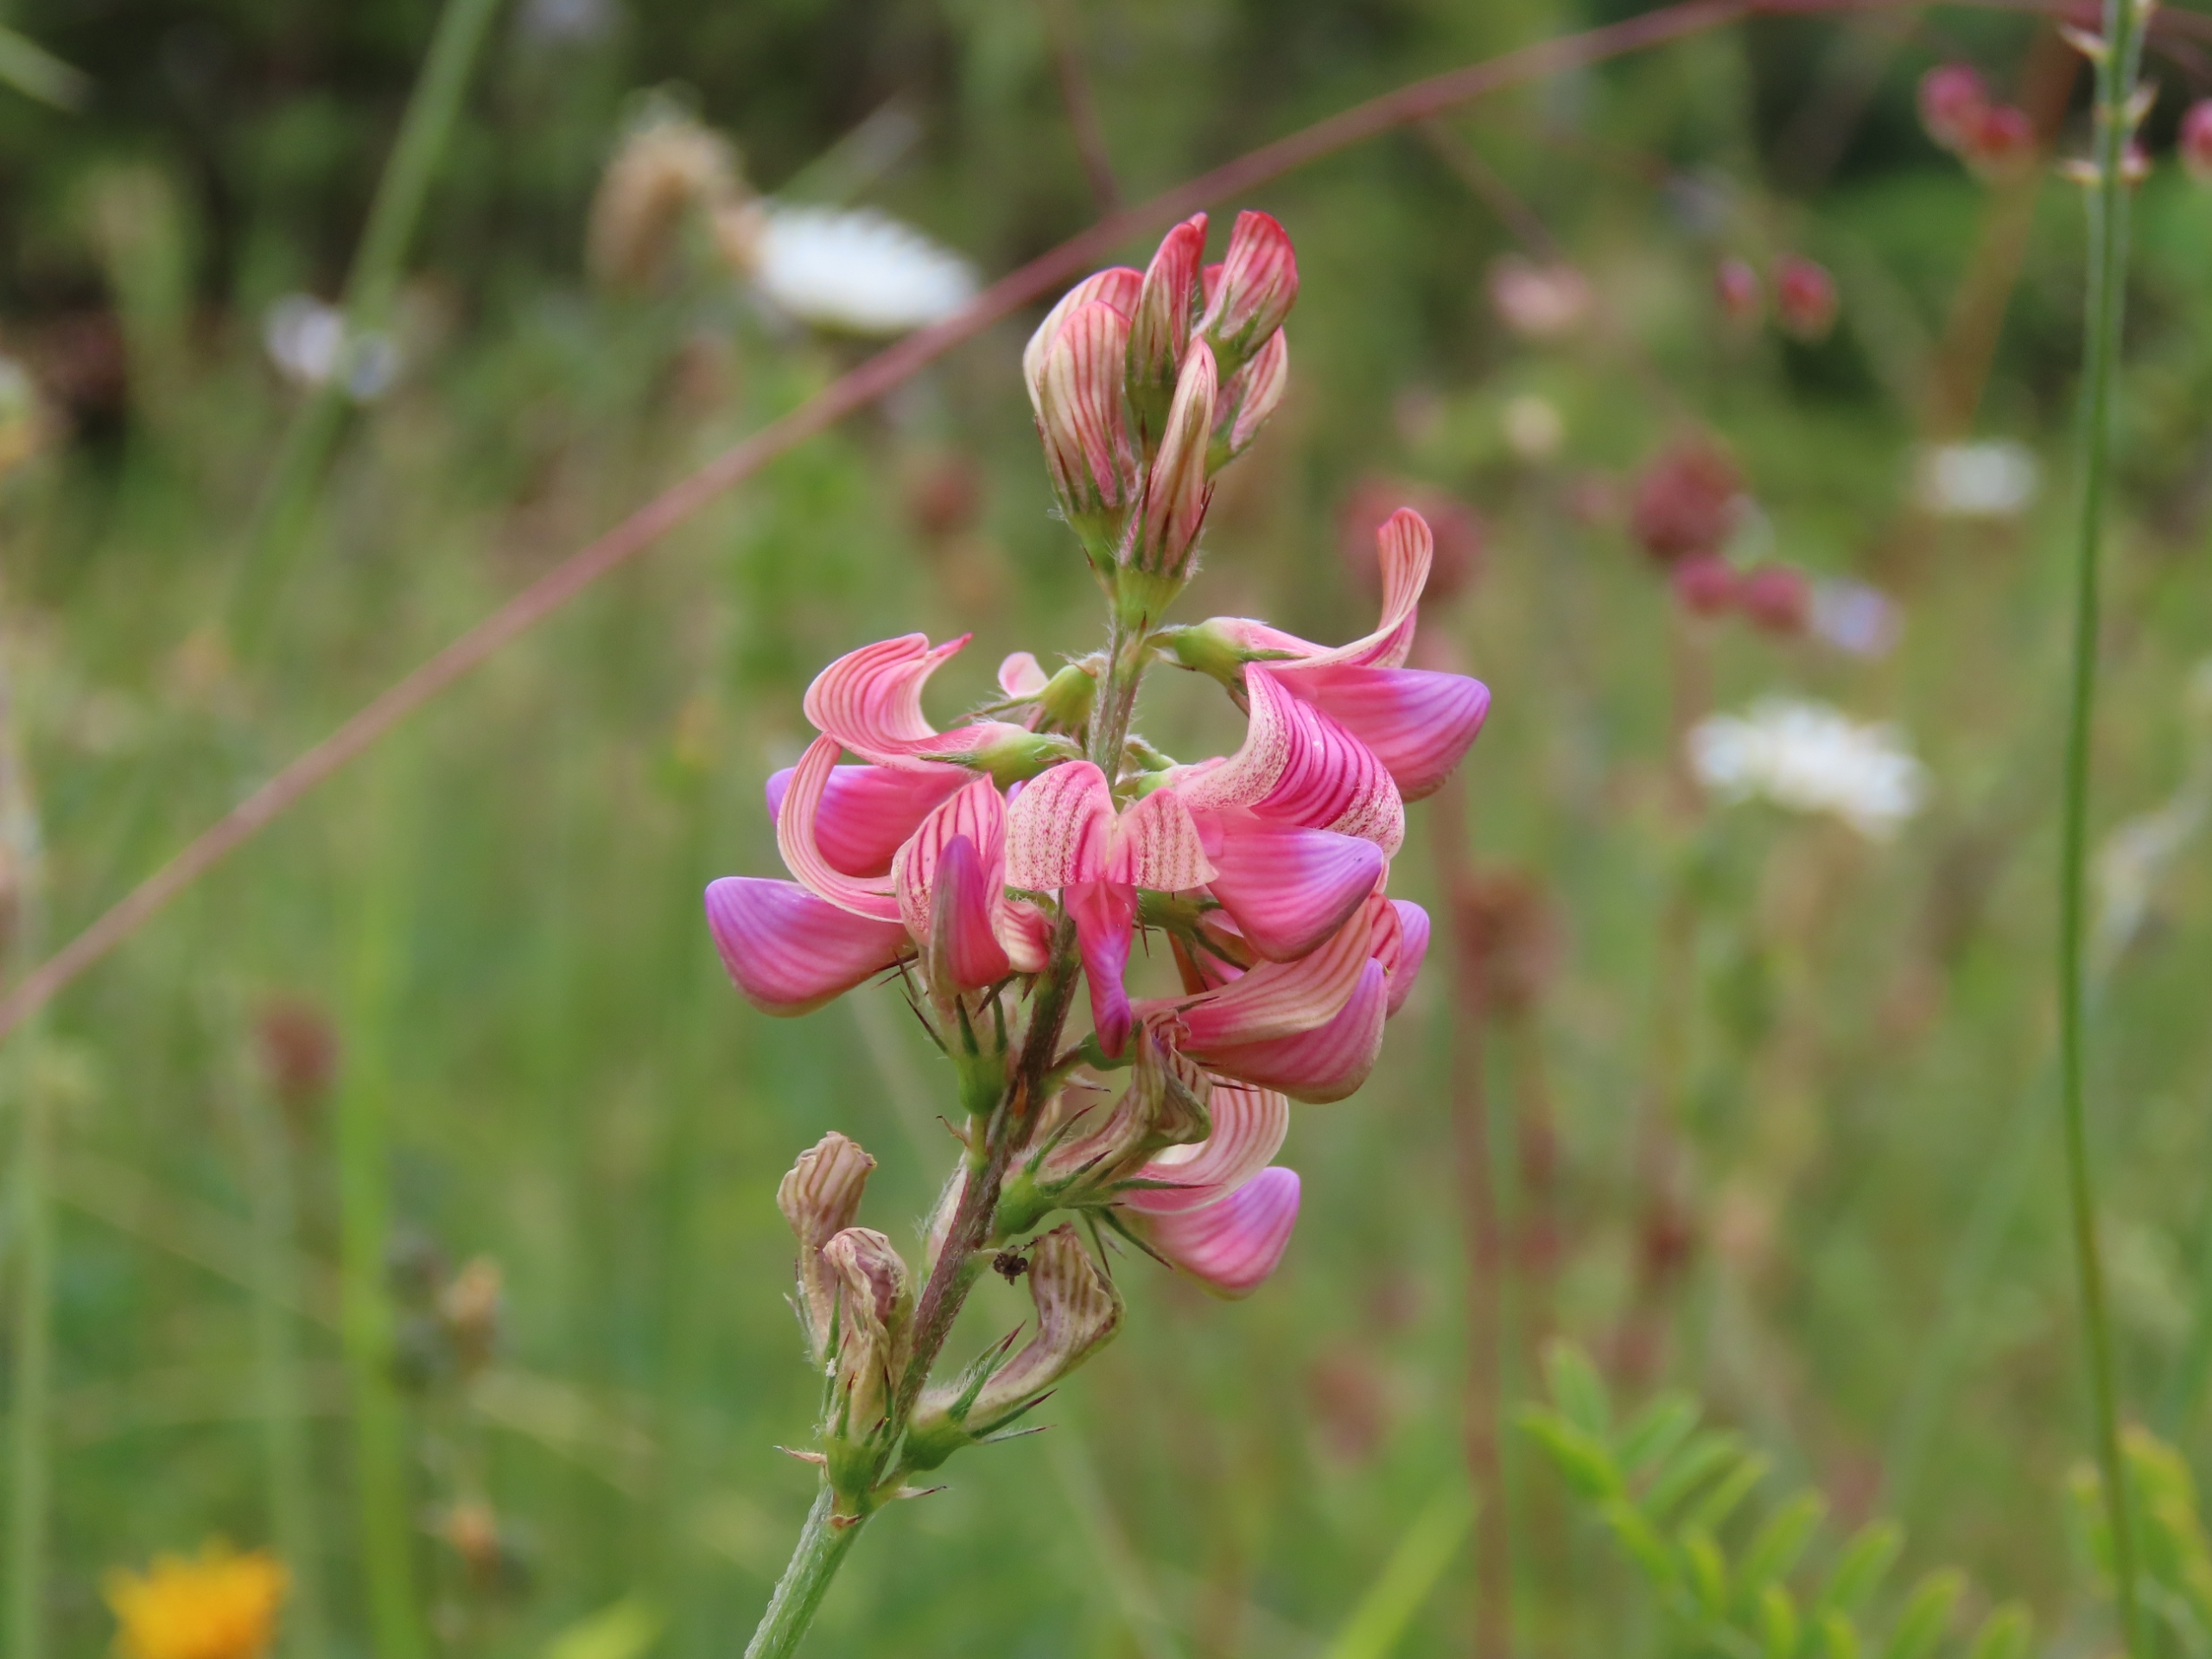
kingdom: Plantae
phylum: Tracheophyta
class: Magnoliopsida
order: Fabales
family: Fabaceae
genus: Onobrychis
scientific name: Onobrychis viciifolia
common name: Esparsette
